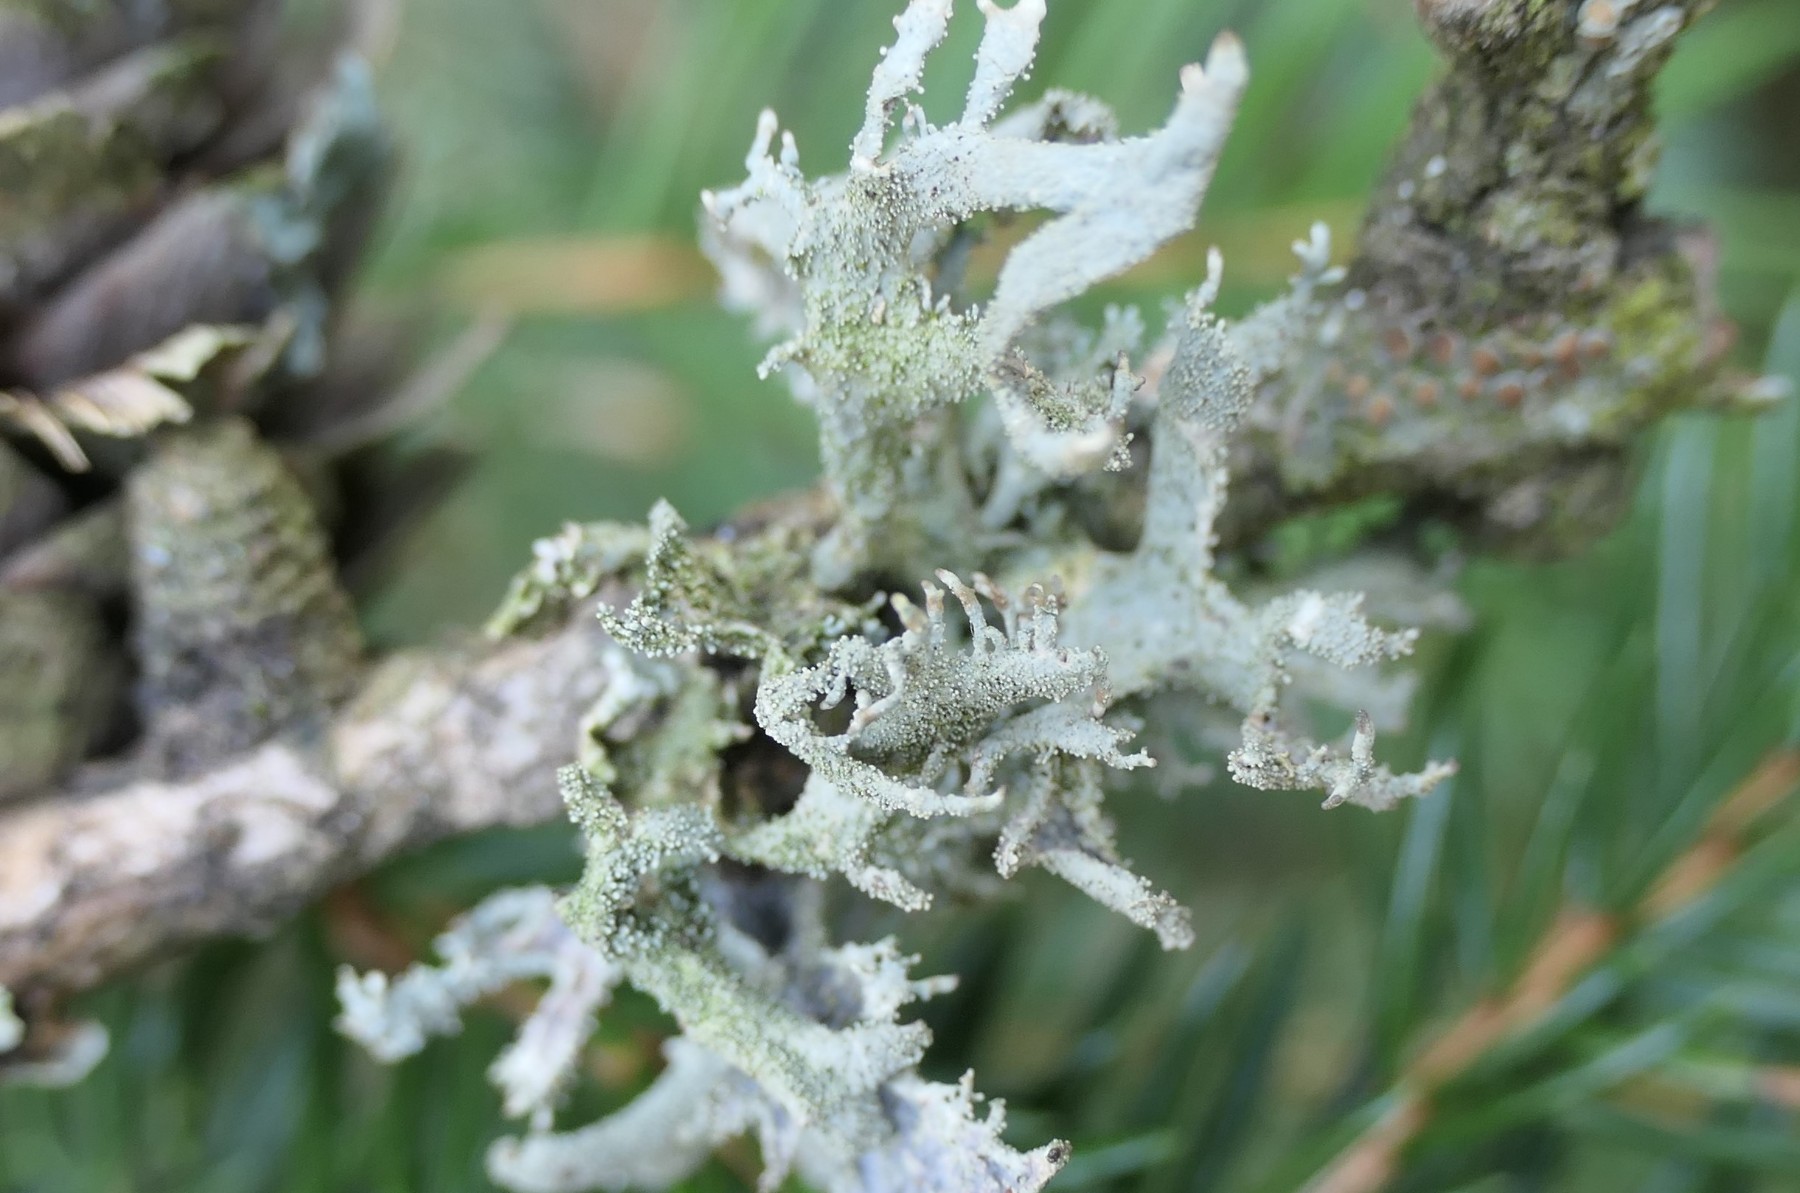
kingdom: Fungi
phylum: Ascomycota
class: Lecanoromycetes
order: Lecanorales
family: Parmeliaceae
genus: Pseudevernia
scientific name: Pseudevernia furfuracea
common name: grå fyrrelav
